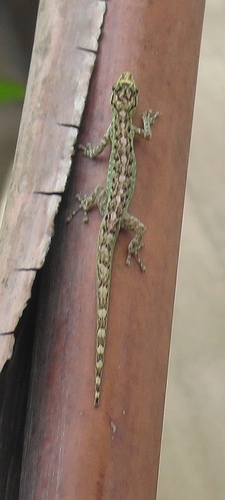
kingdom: Animalia
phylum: Chordata
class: Squamata
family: Gekkonidae
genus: Lygodactylus
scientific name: Lygodactylus thomensis
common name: Annobon dwarf gecko
